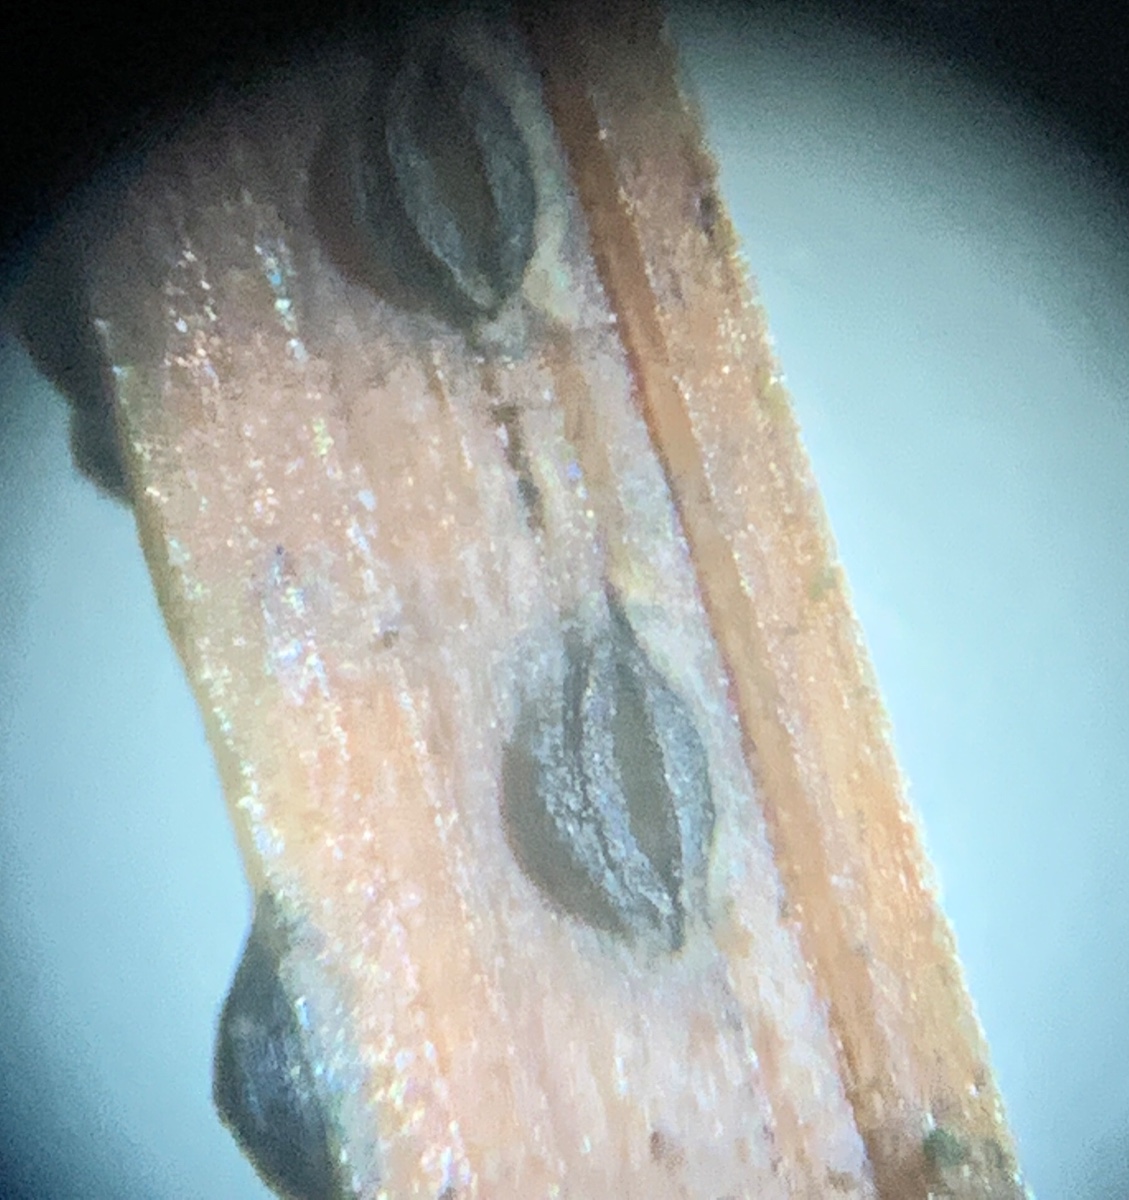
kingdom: Fungi
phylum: Ascomycota
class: Leotiomycetes
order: Rhytismatales
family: Rhytismataceae
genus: Lophodermium
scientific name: Lophodermium pinastri
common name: fyrre-fureplet
